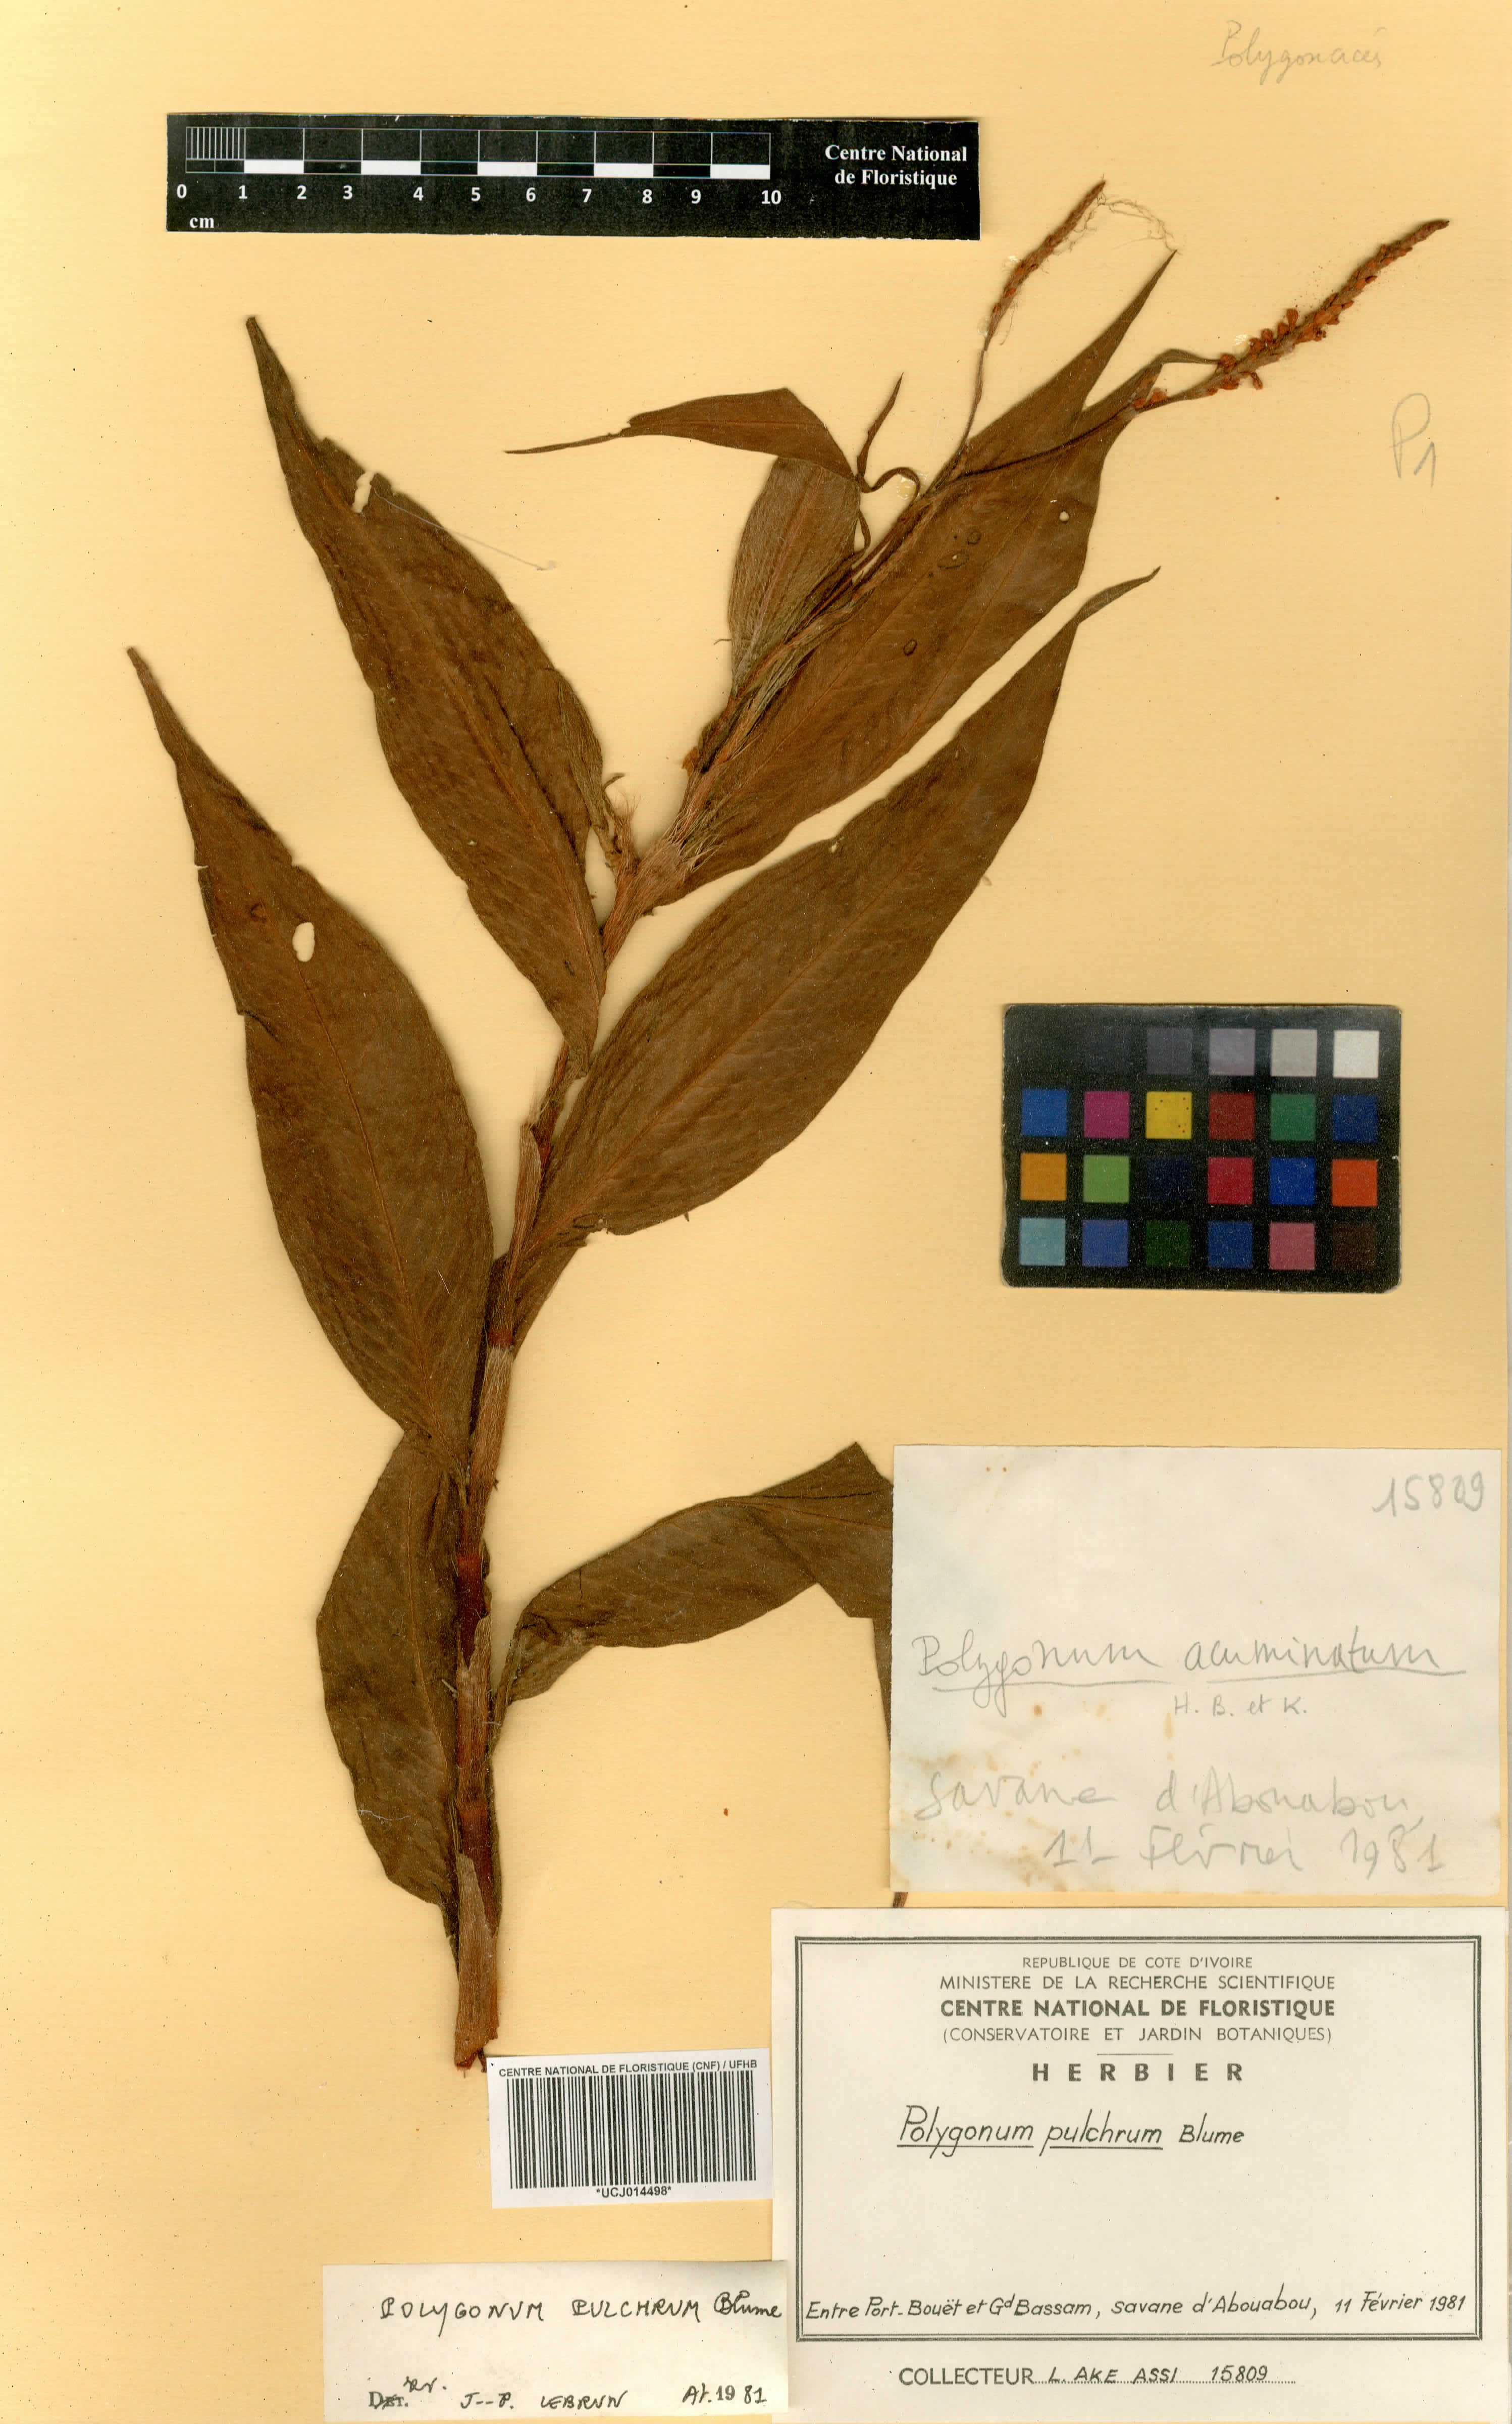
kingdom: Plantae
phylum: Tracheophyta
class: Magnoliopsida
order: Caryophyllales
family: Polygonaceae
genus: Persicaria
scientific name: Persicaria pulchra
